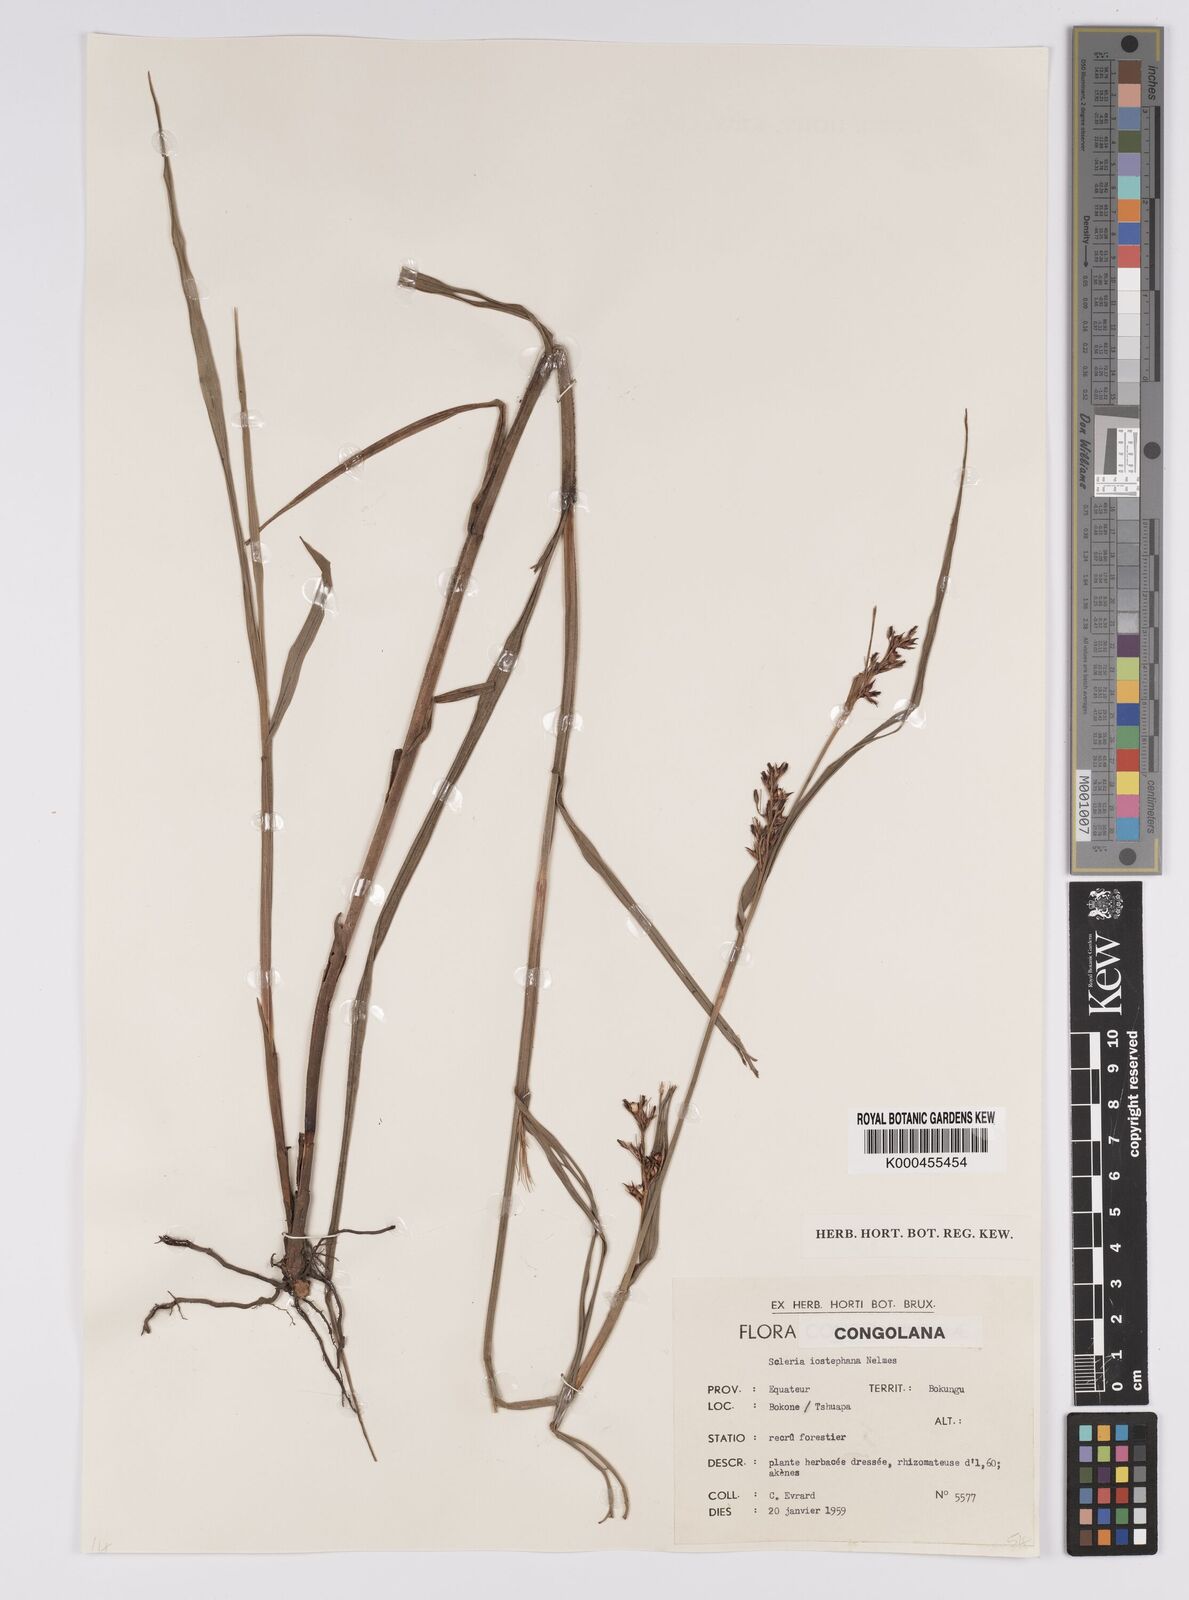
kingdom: Plantae
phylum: Tracheophyta
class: Liliopsida
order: Poales
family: Cyperaceae
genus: Scleria
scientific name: Scleria iostephana
